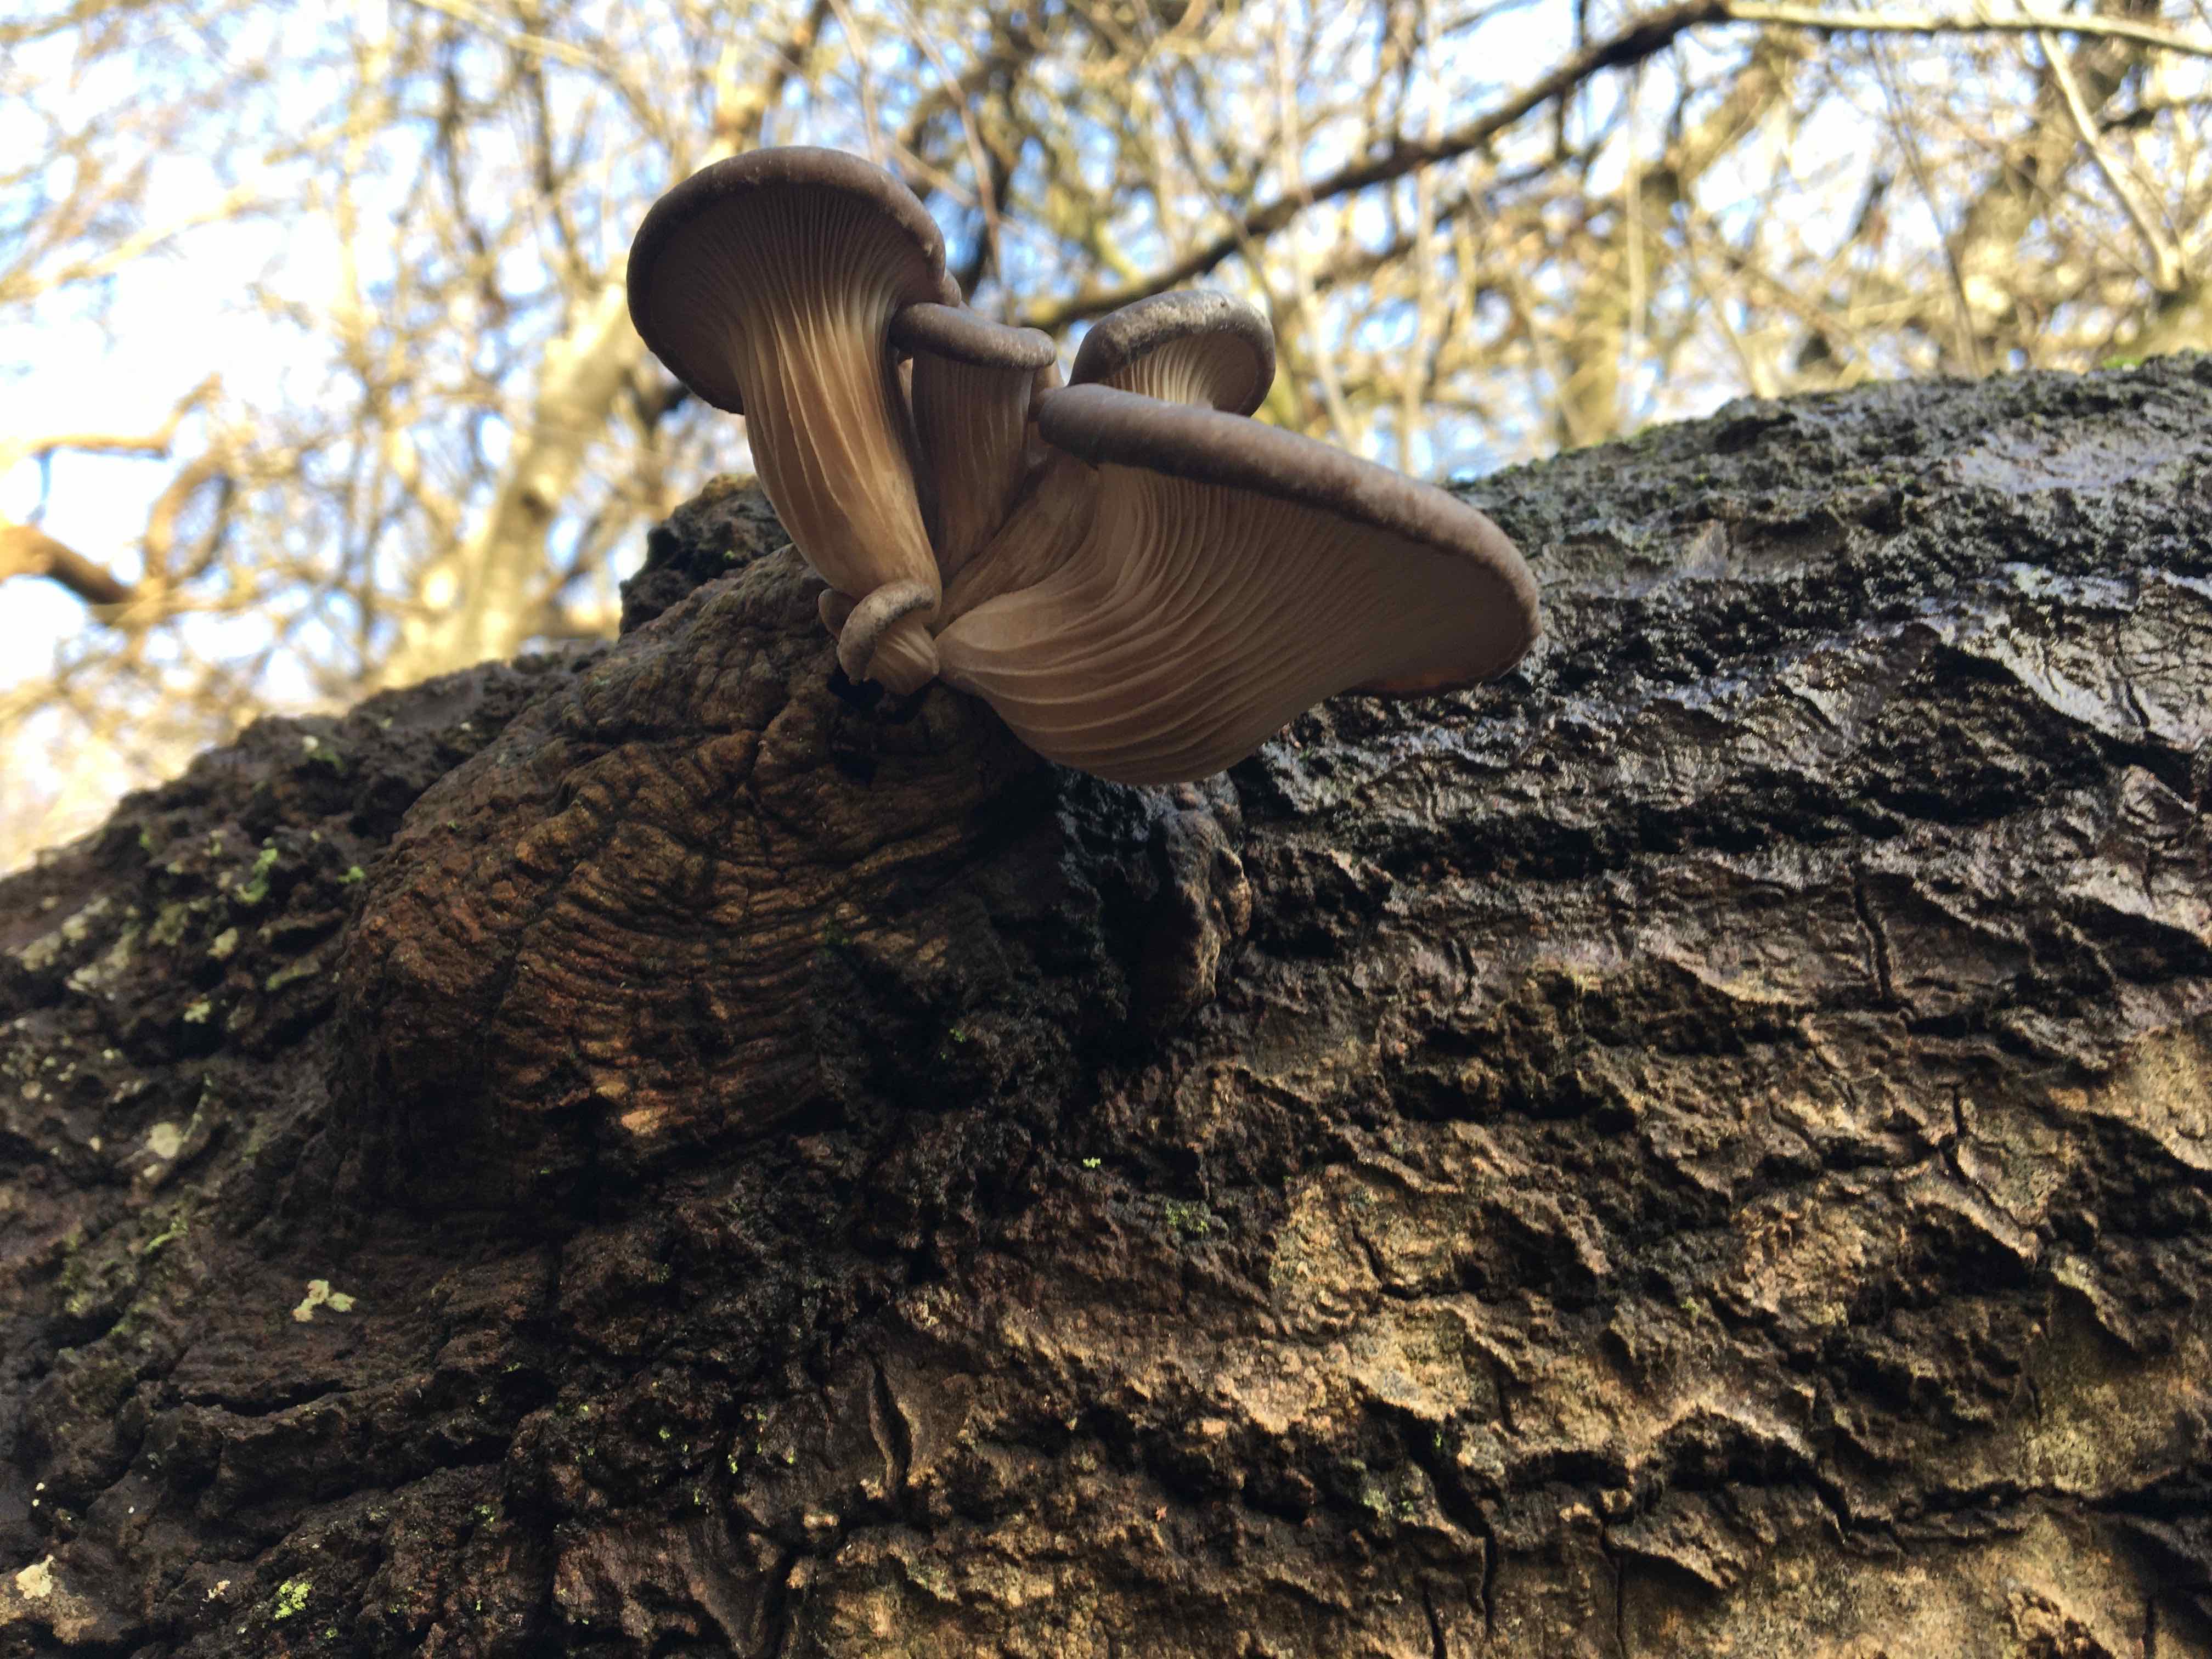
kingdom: Fungi
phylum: Basidiomycota
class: Agaricomycetes
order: Agaricales
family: Pleurotaceae
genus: Pleurotus
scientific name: Pleurotus ostreatus
